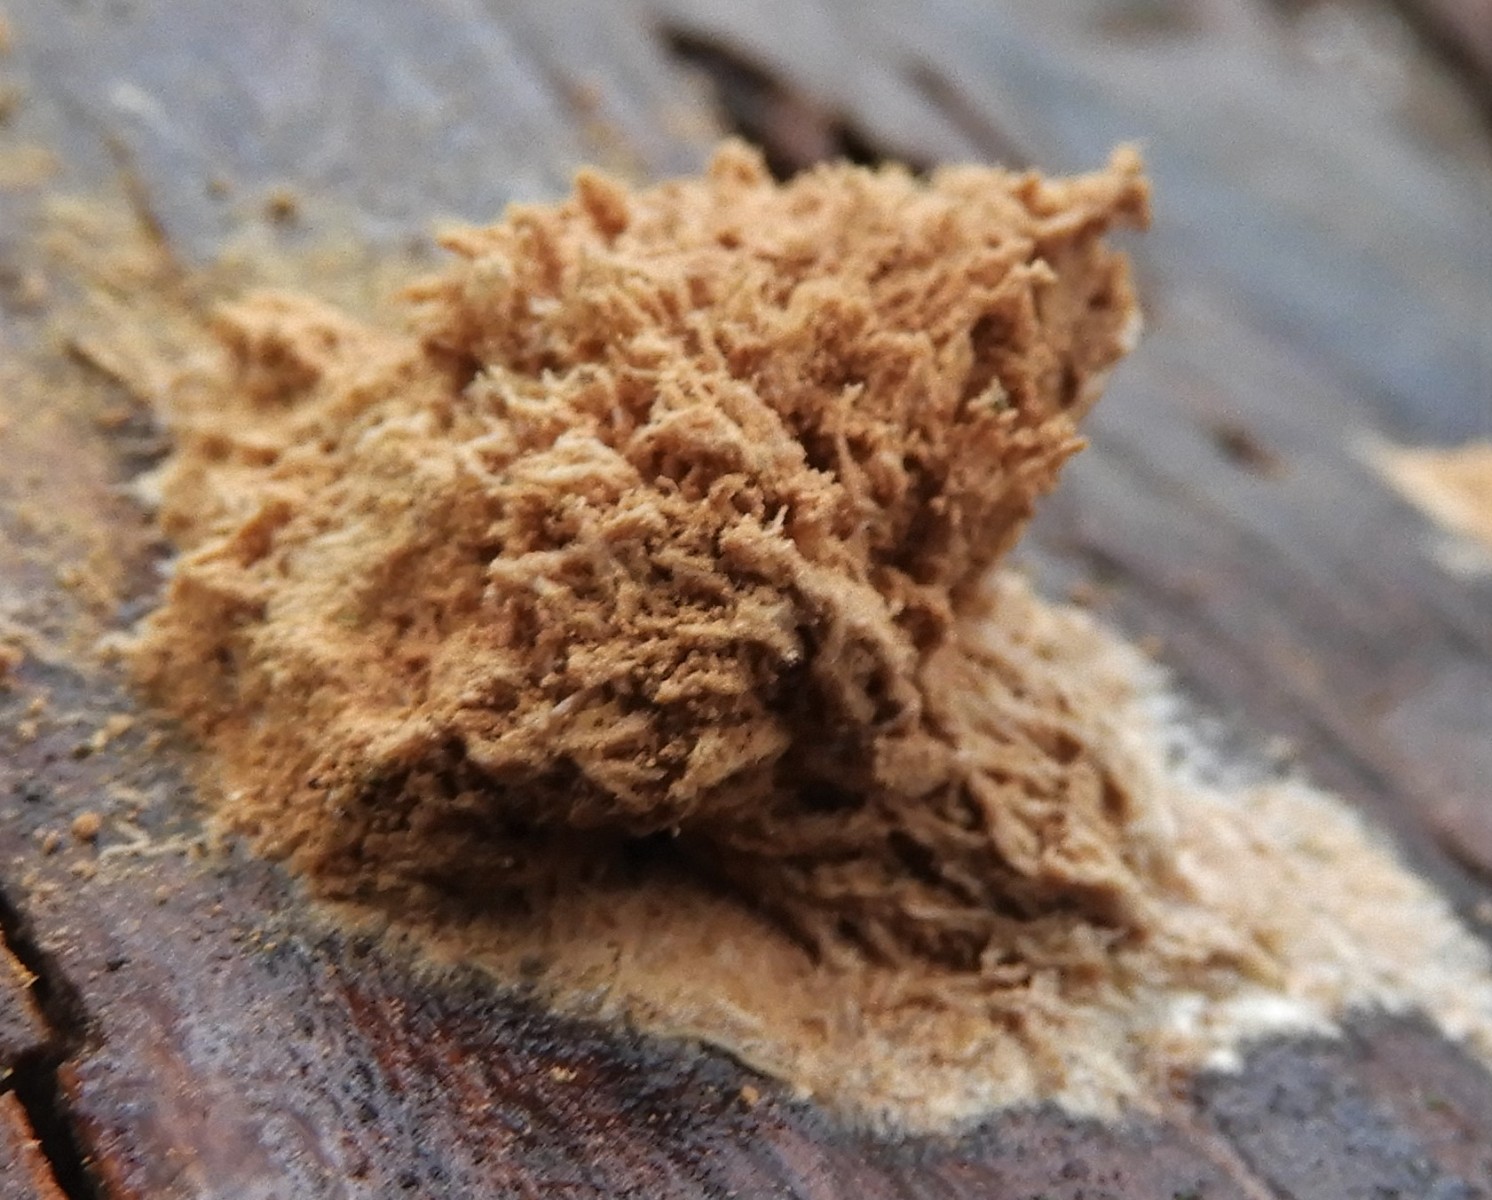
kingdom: Fungi
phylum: Basidiomycota
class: Agaricomycetes
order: Polyporales
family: Dacryobolaceae
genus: Postia
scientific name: Postia ptychogaster
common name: støvende kødporesvamp
